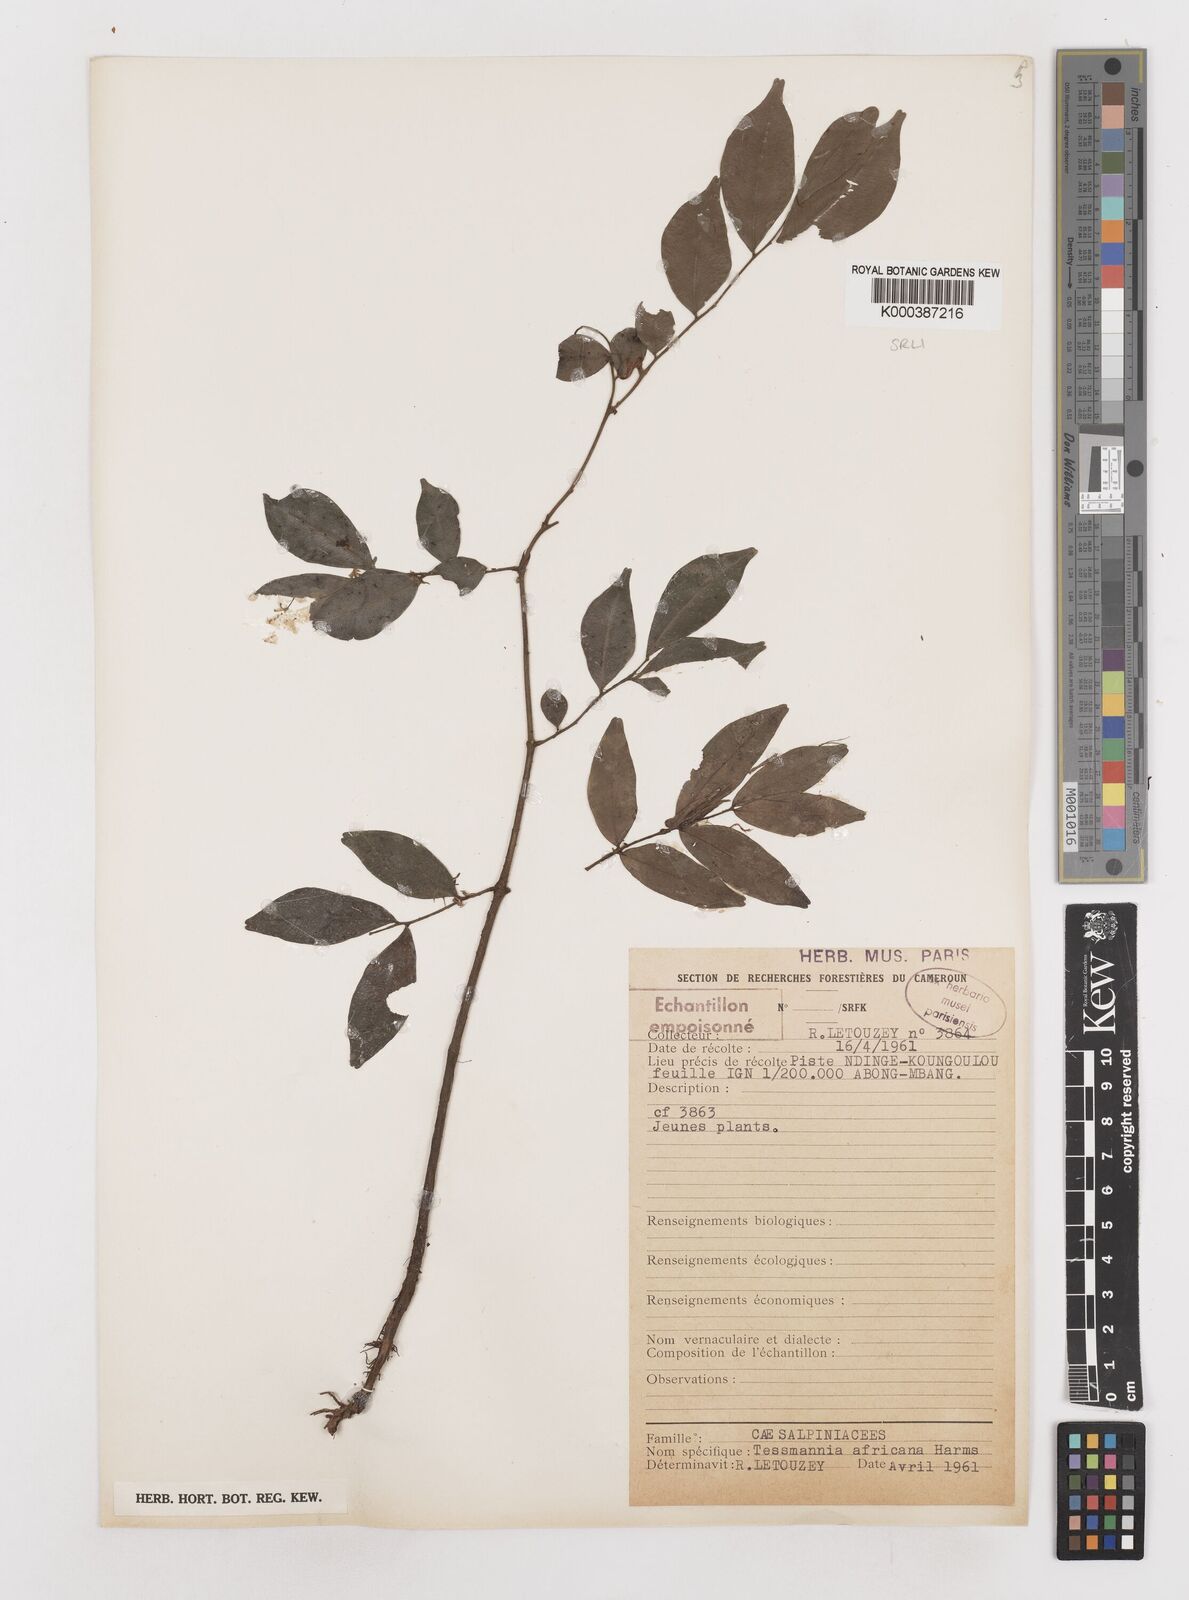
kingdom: Plantae
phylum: Tracheophyta
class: Magnoliopsida
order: Fabales
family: Fabaceae
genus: Tessmannia
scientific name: Tessmannia africana
